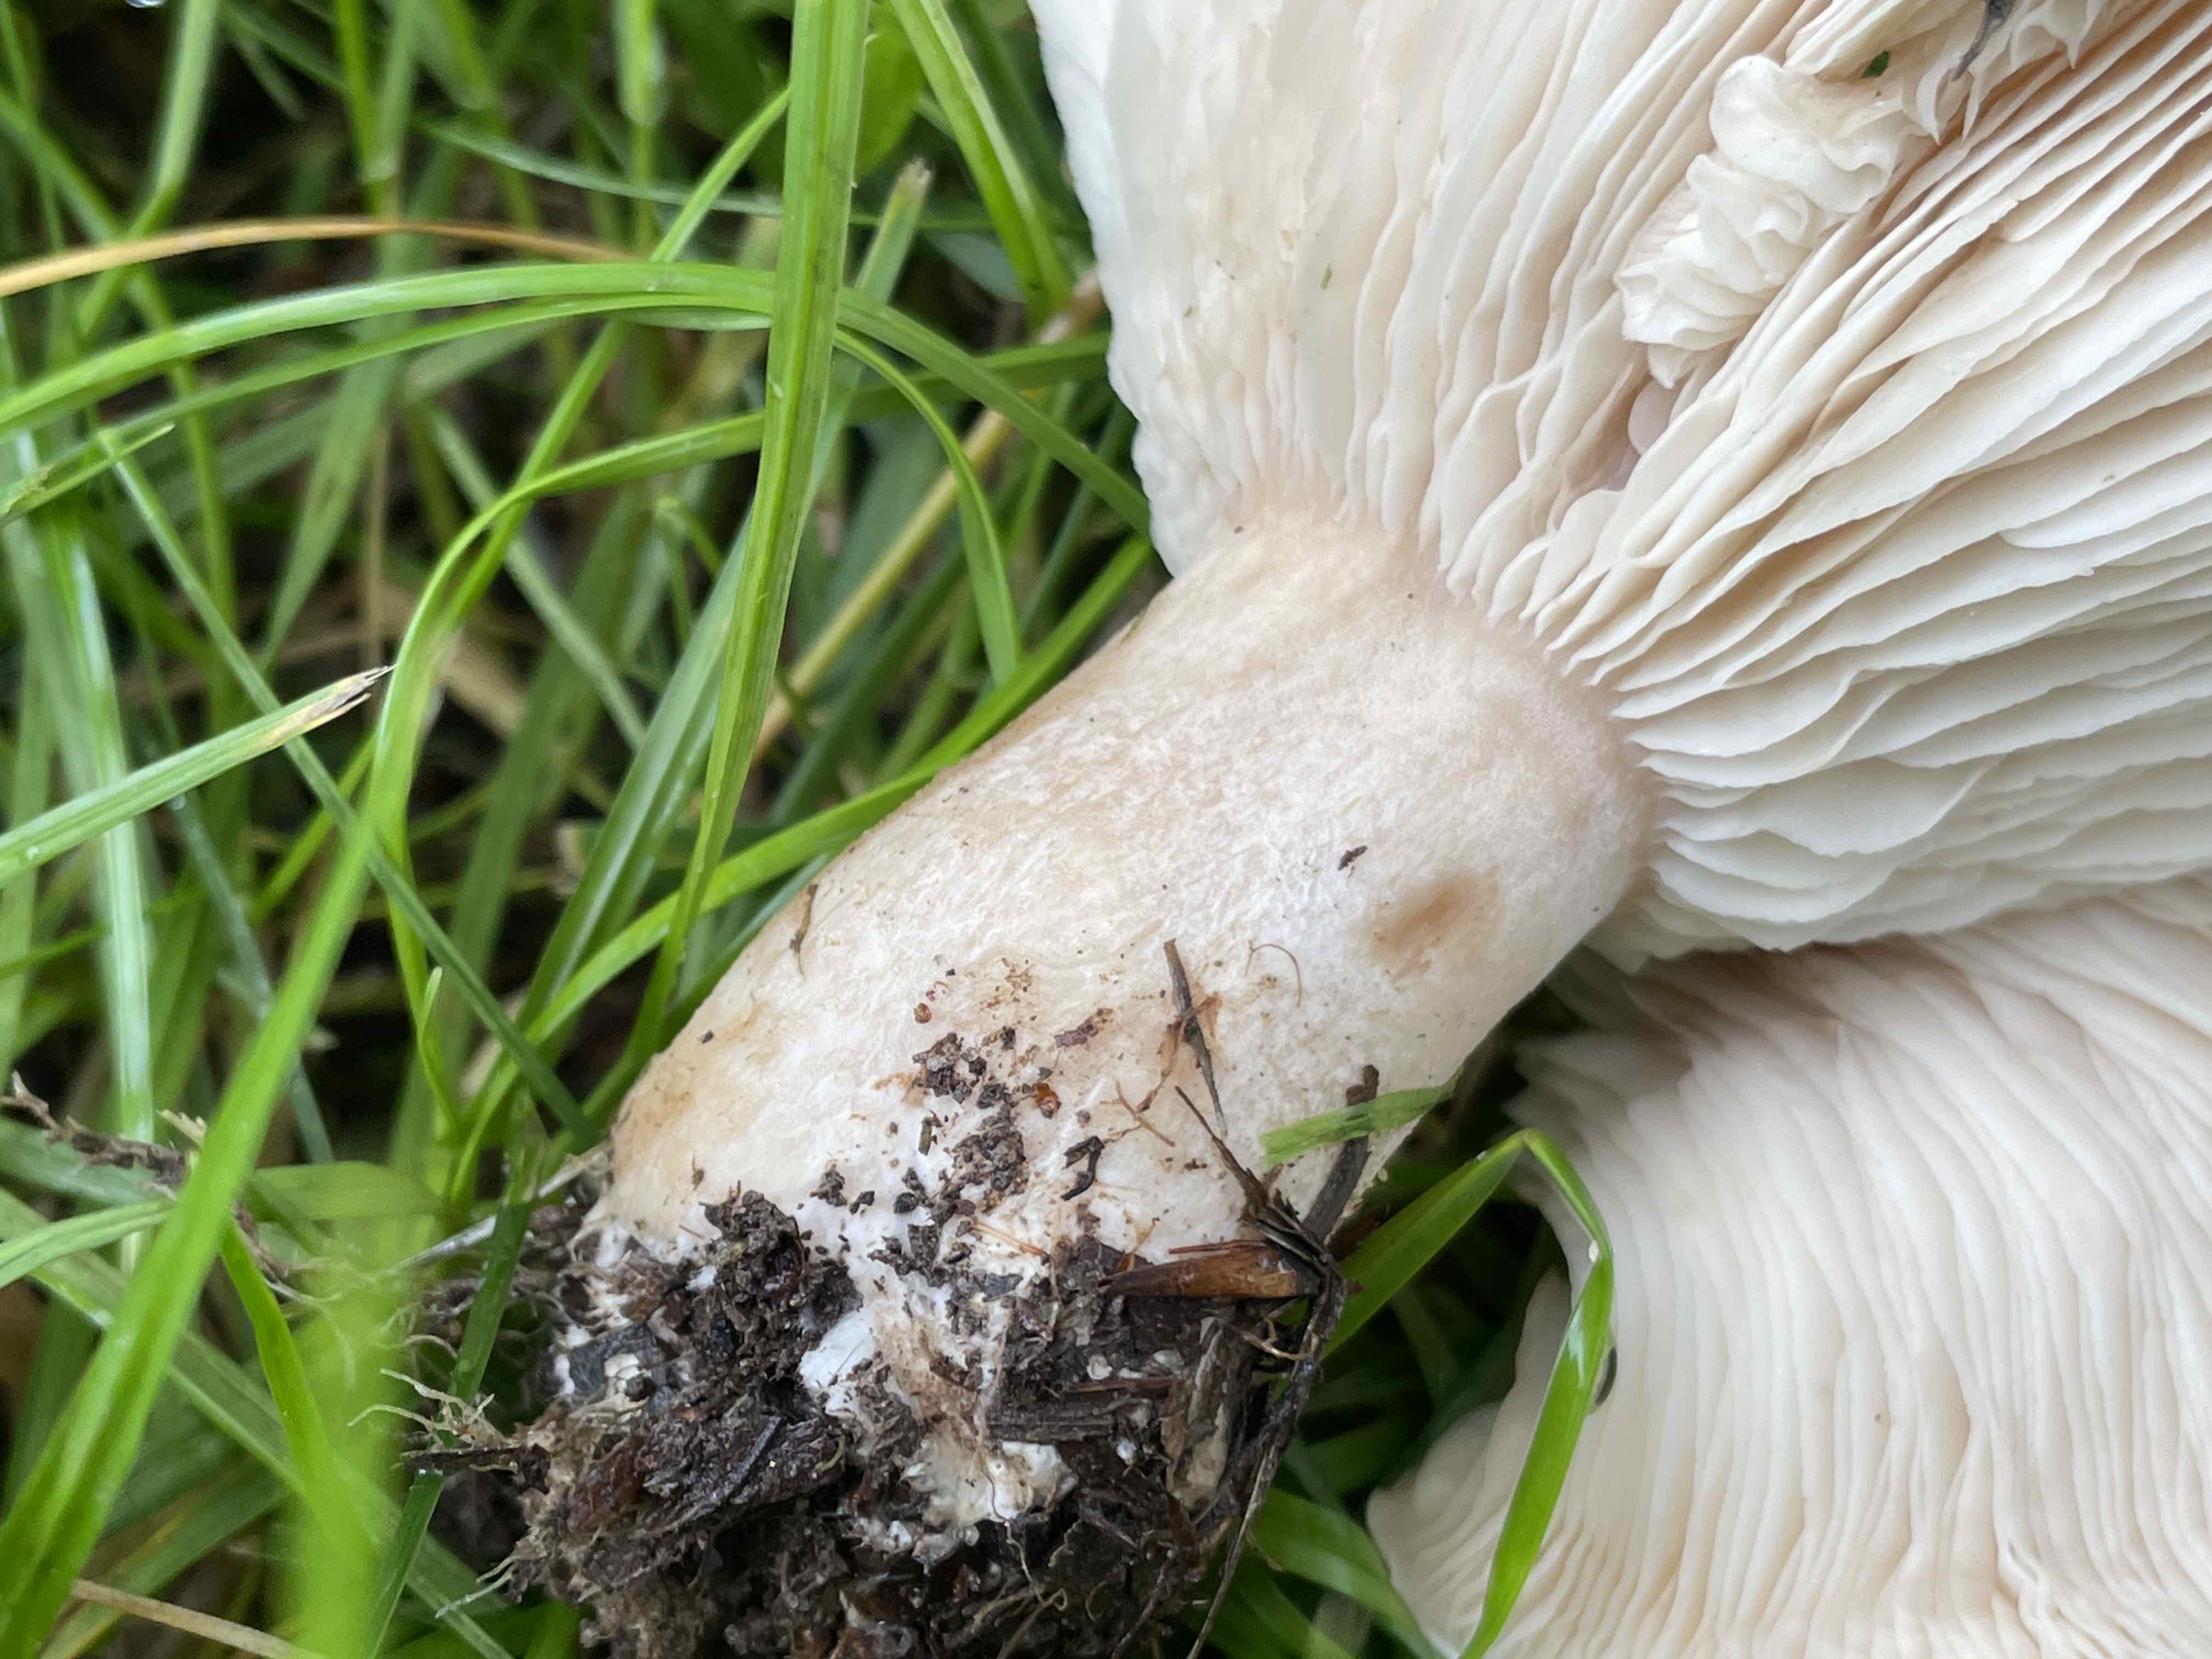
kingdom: Fungi
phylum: Basidiomycota
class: Agaricomycetes
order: Agaricales
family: Tricholomataceae
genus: Aspropaxillus
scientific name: Aspropaxillus giganteus
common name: kæmpe-tragtridderhat
